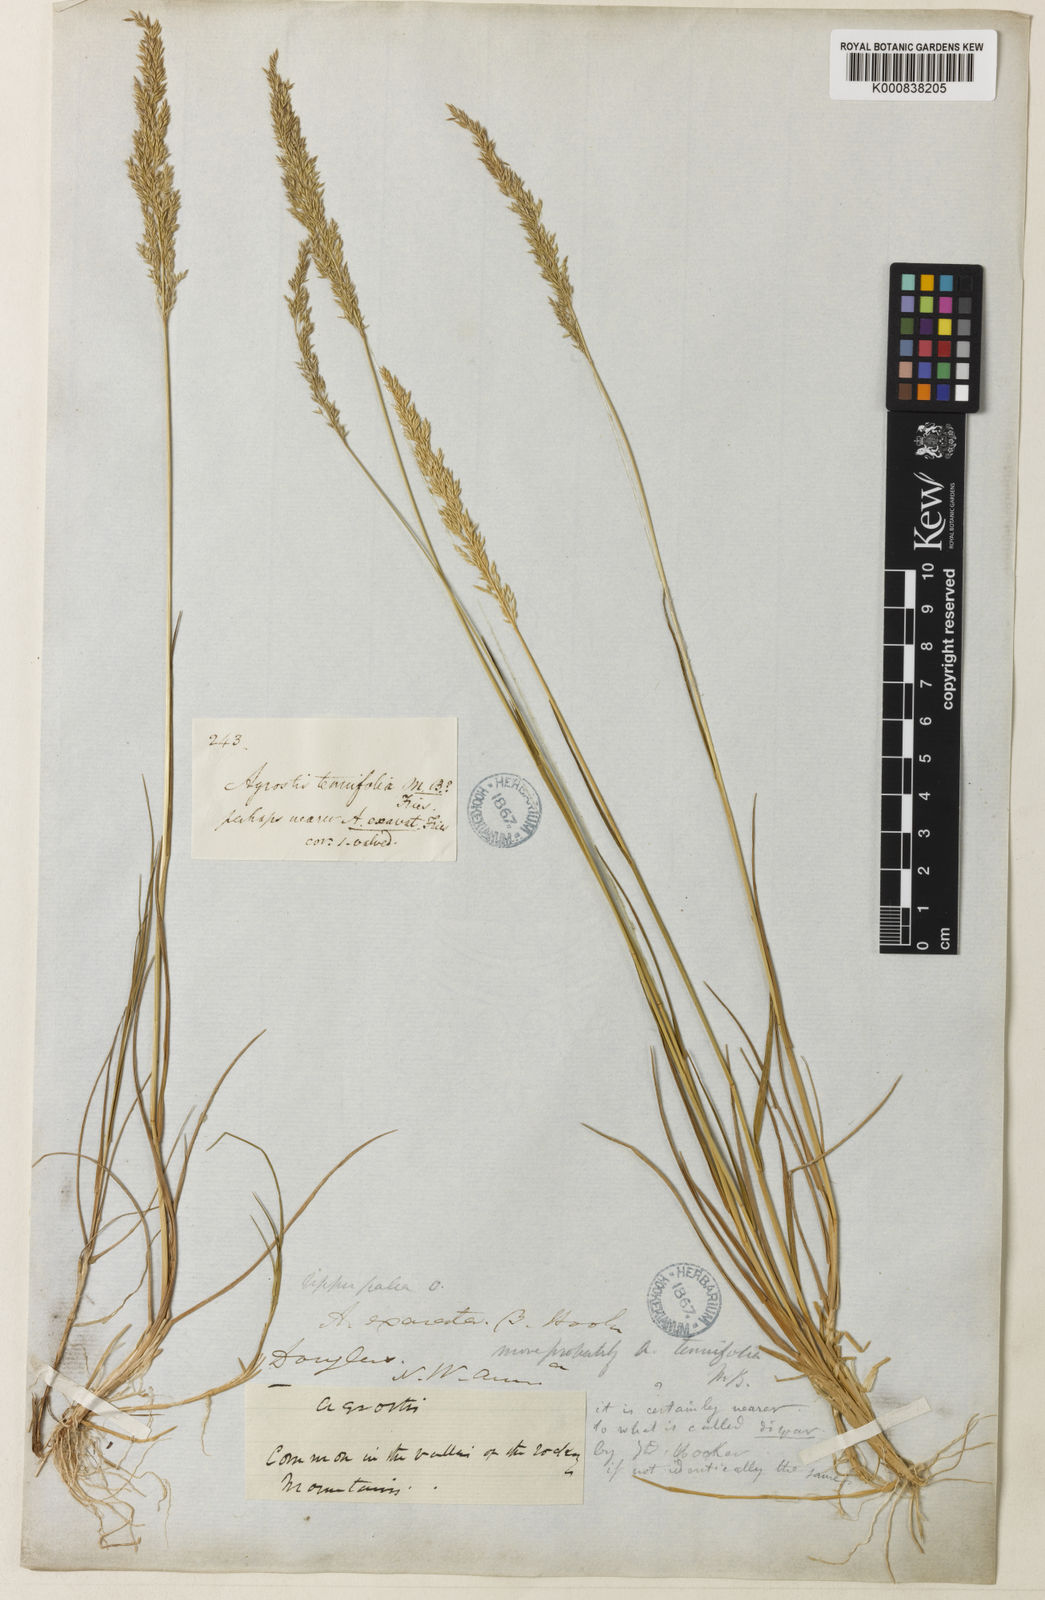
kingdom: Plantae
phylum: Tracheophyta
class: Liliopsida
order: Poales
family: Poaceae
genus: Agrostis
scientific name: Agrostis
